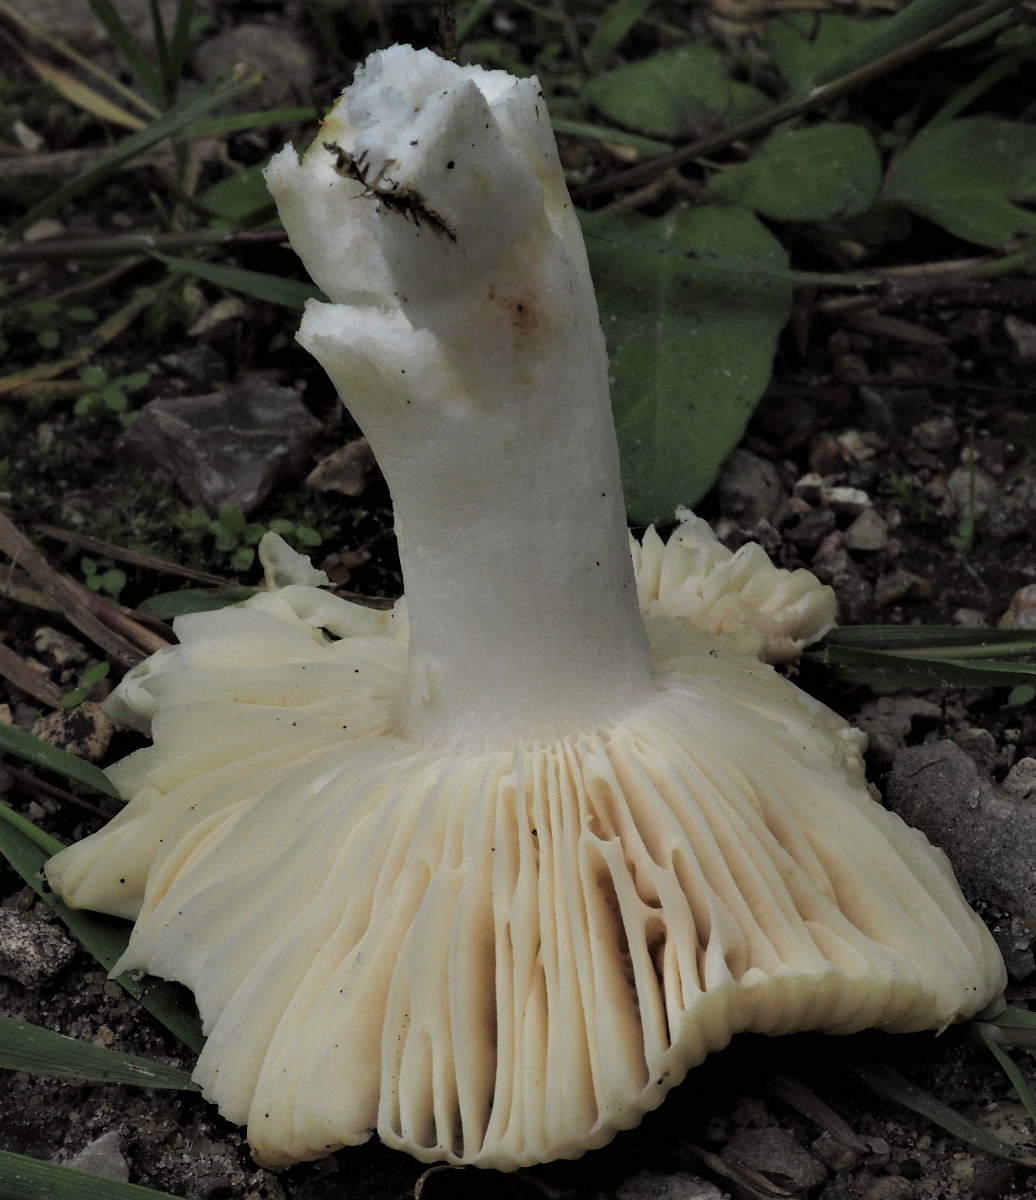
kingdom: Fungi
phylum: Basidiomycota
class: Agaricomycetes
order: Russulales
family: Russulaceae
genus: Russula
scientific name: Russula
